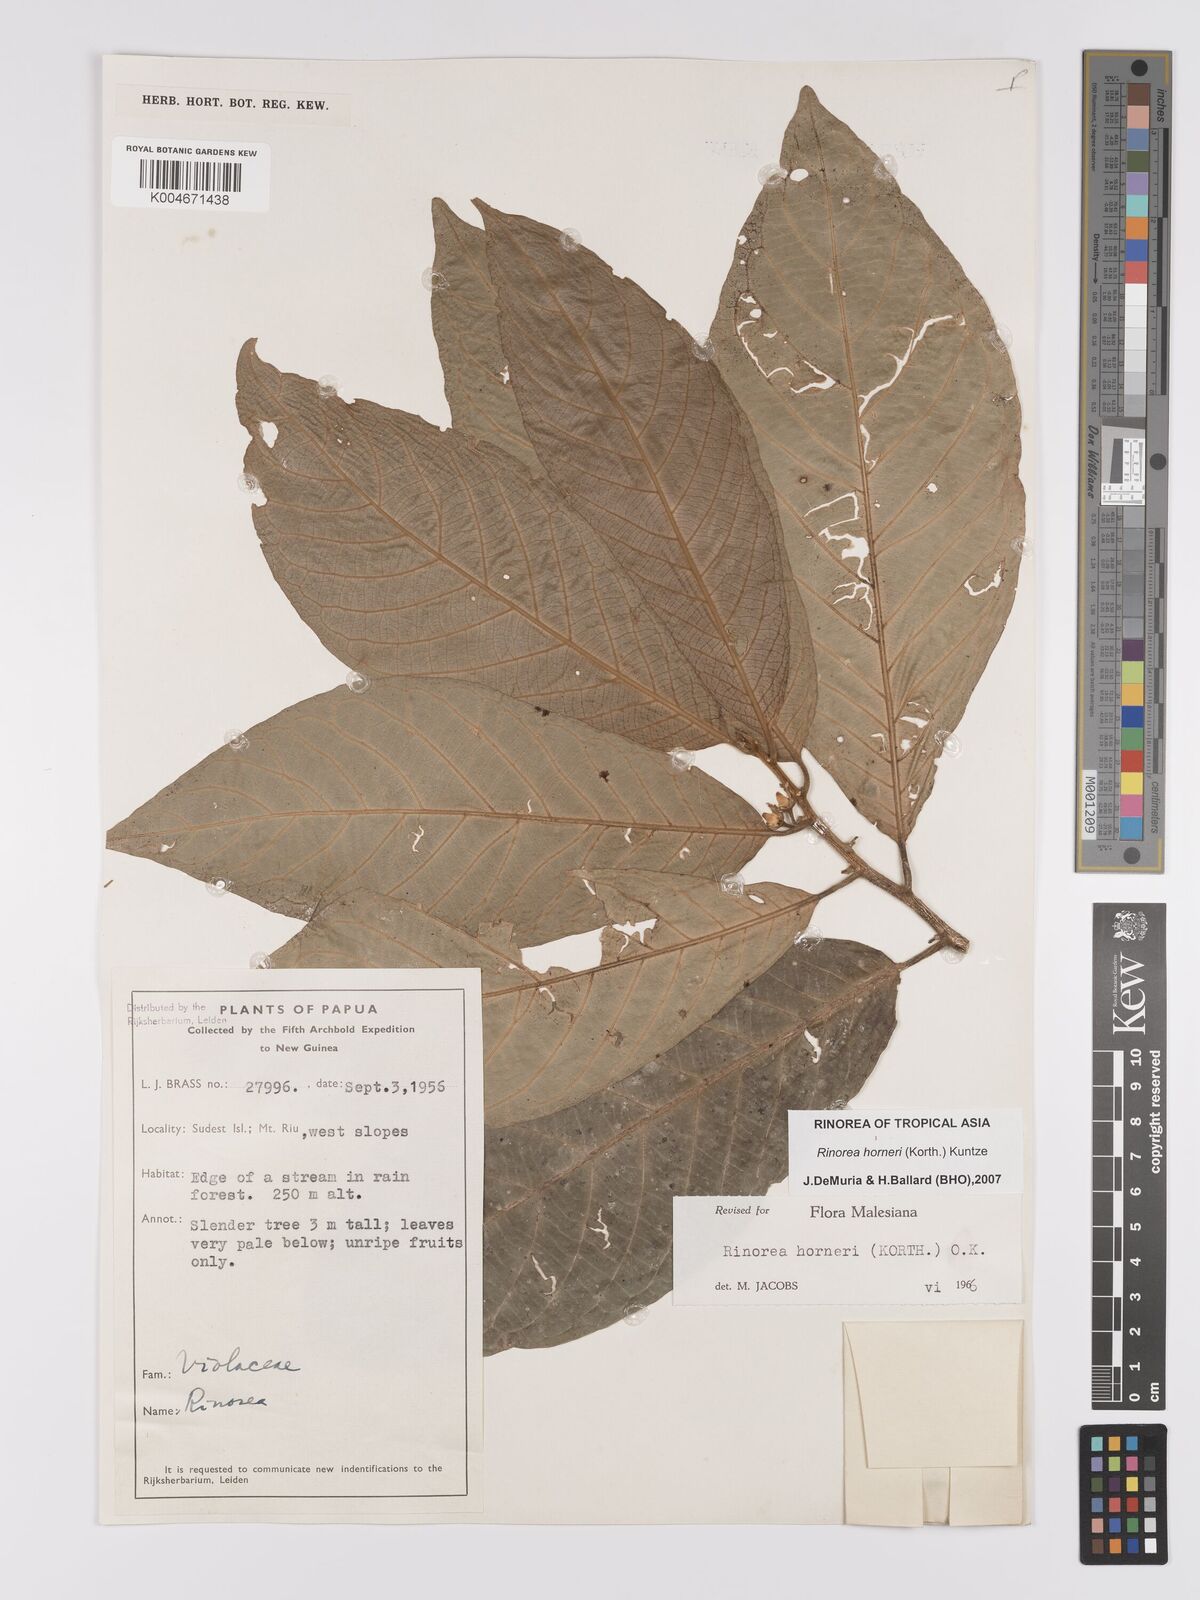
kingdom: Plantae
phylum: Tracheophyta
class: Magnoliopsida
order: Malpighiales
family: Violaceae
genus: Rinorea
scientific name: Rinorea horneri
